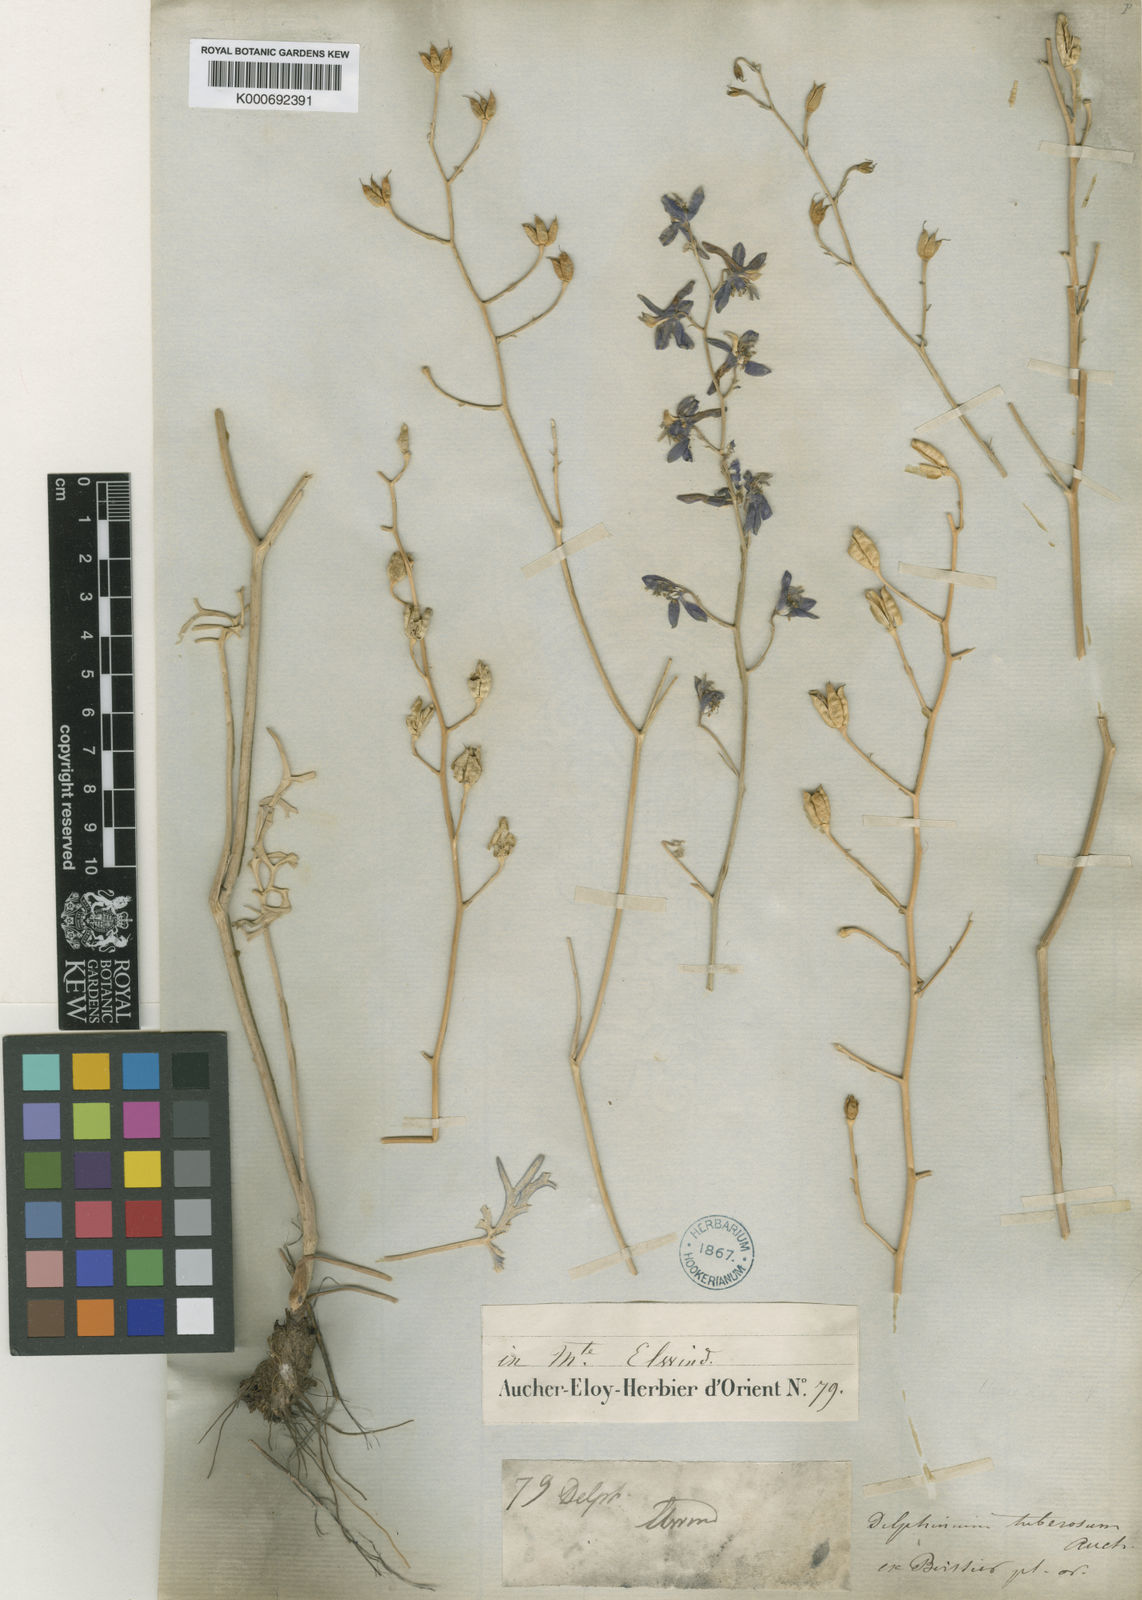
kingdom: Plantae
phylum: Tracheophyta
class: Magnoliopsida
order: Ranunculales
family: Ranunculaceae
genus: Delphinium
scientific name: Delphinium tuberosum
